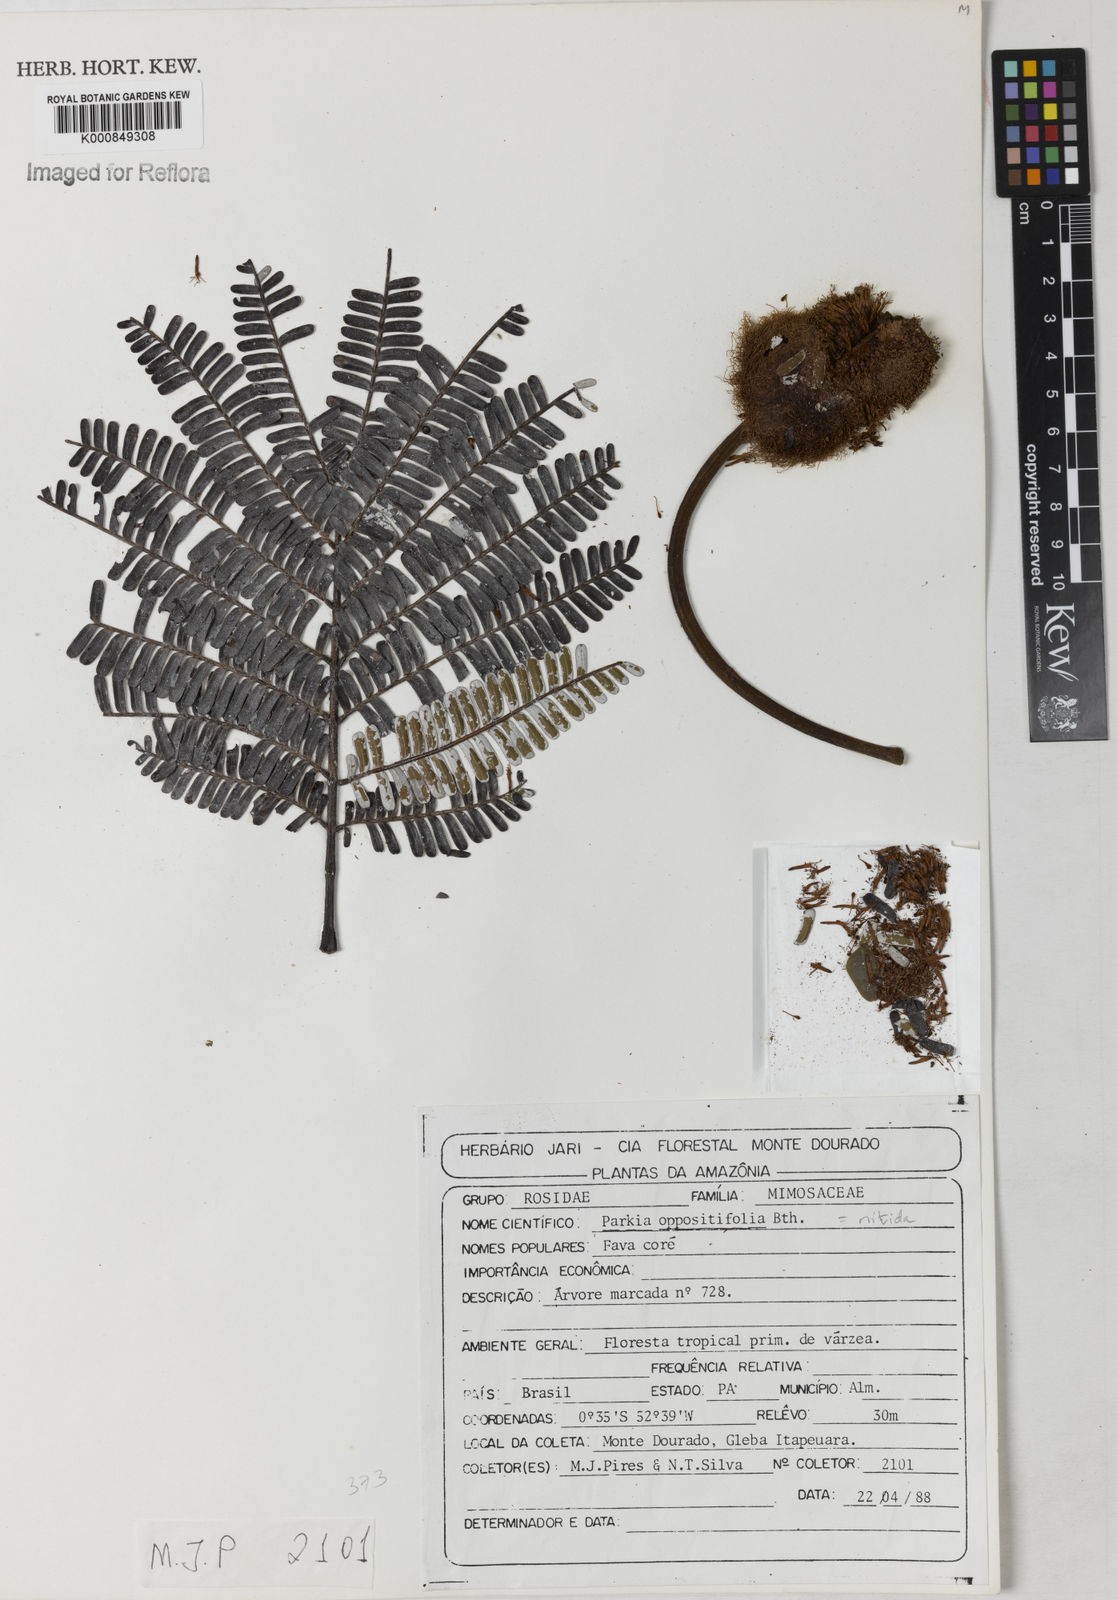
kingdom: Plantae
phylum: Tracheophyta
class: Magnoliopsida
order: Fabales
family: Fabaceae
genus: Parkia
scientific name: Parkia nitida
